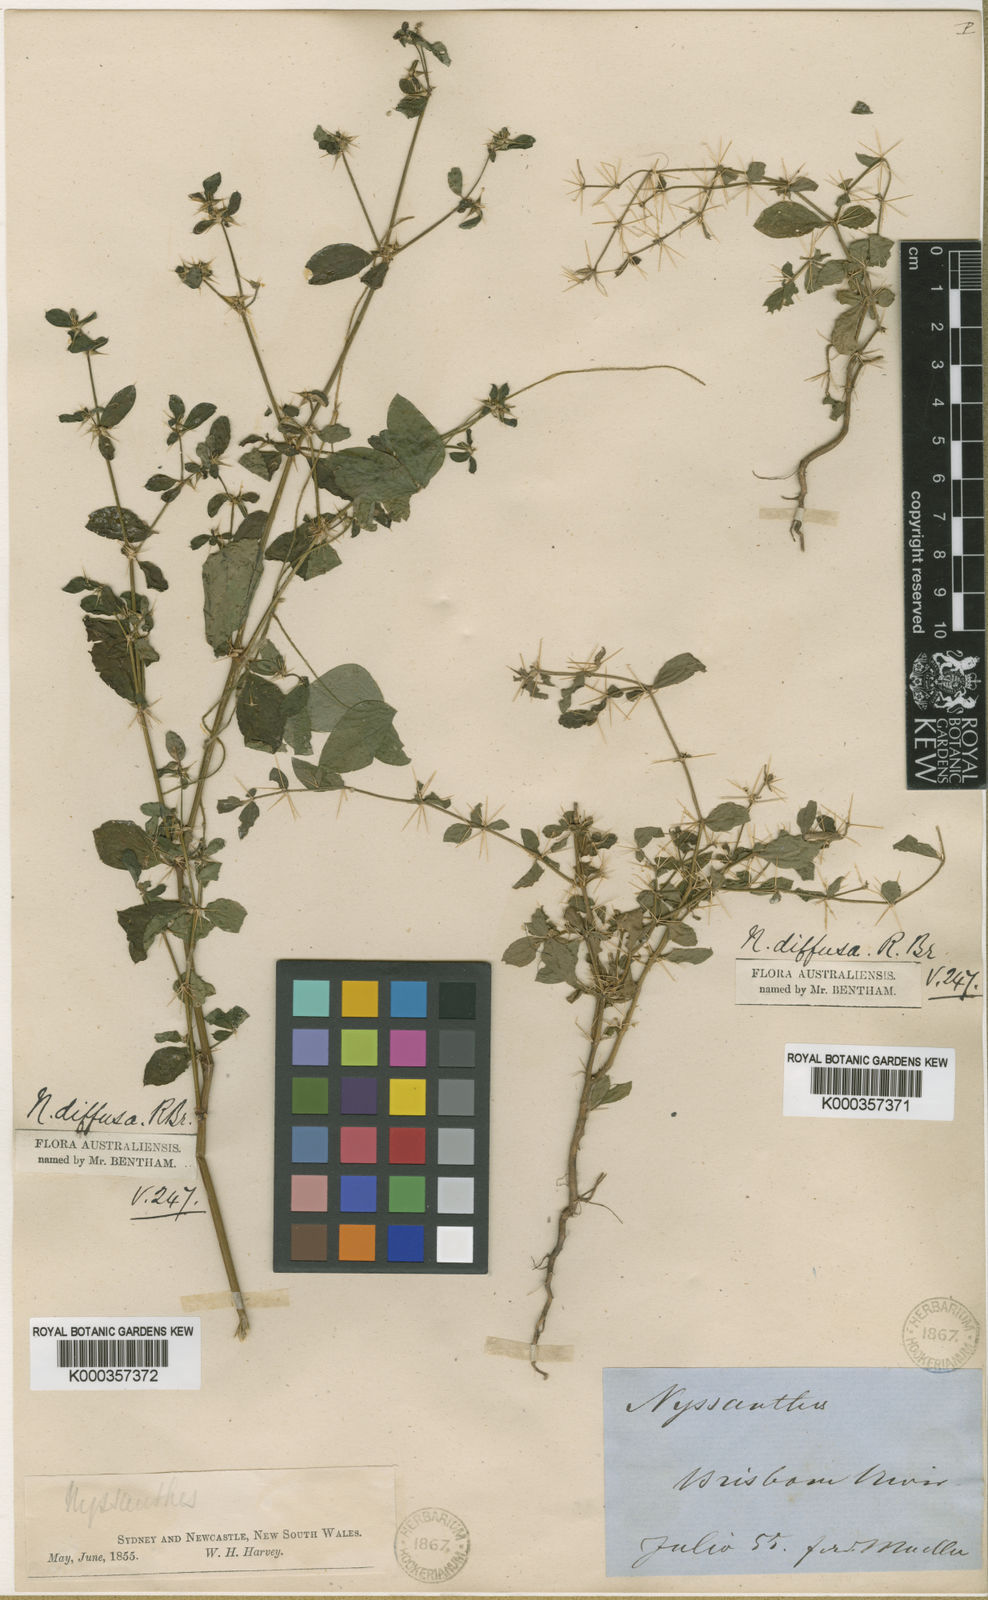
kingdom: Plantae
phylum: Tracheophyta
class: Magnoliopsida
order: Caryophyllales
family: Amaranthaceae
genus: Nyssanthes
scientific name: Nyssanthes diffusa
